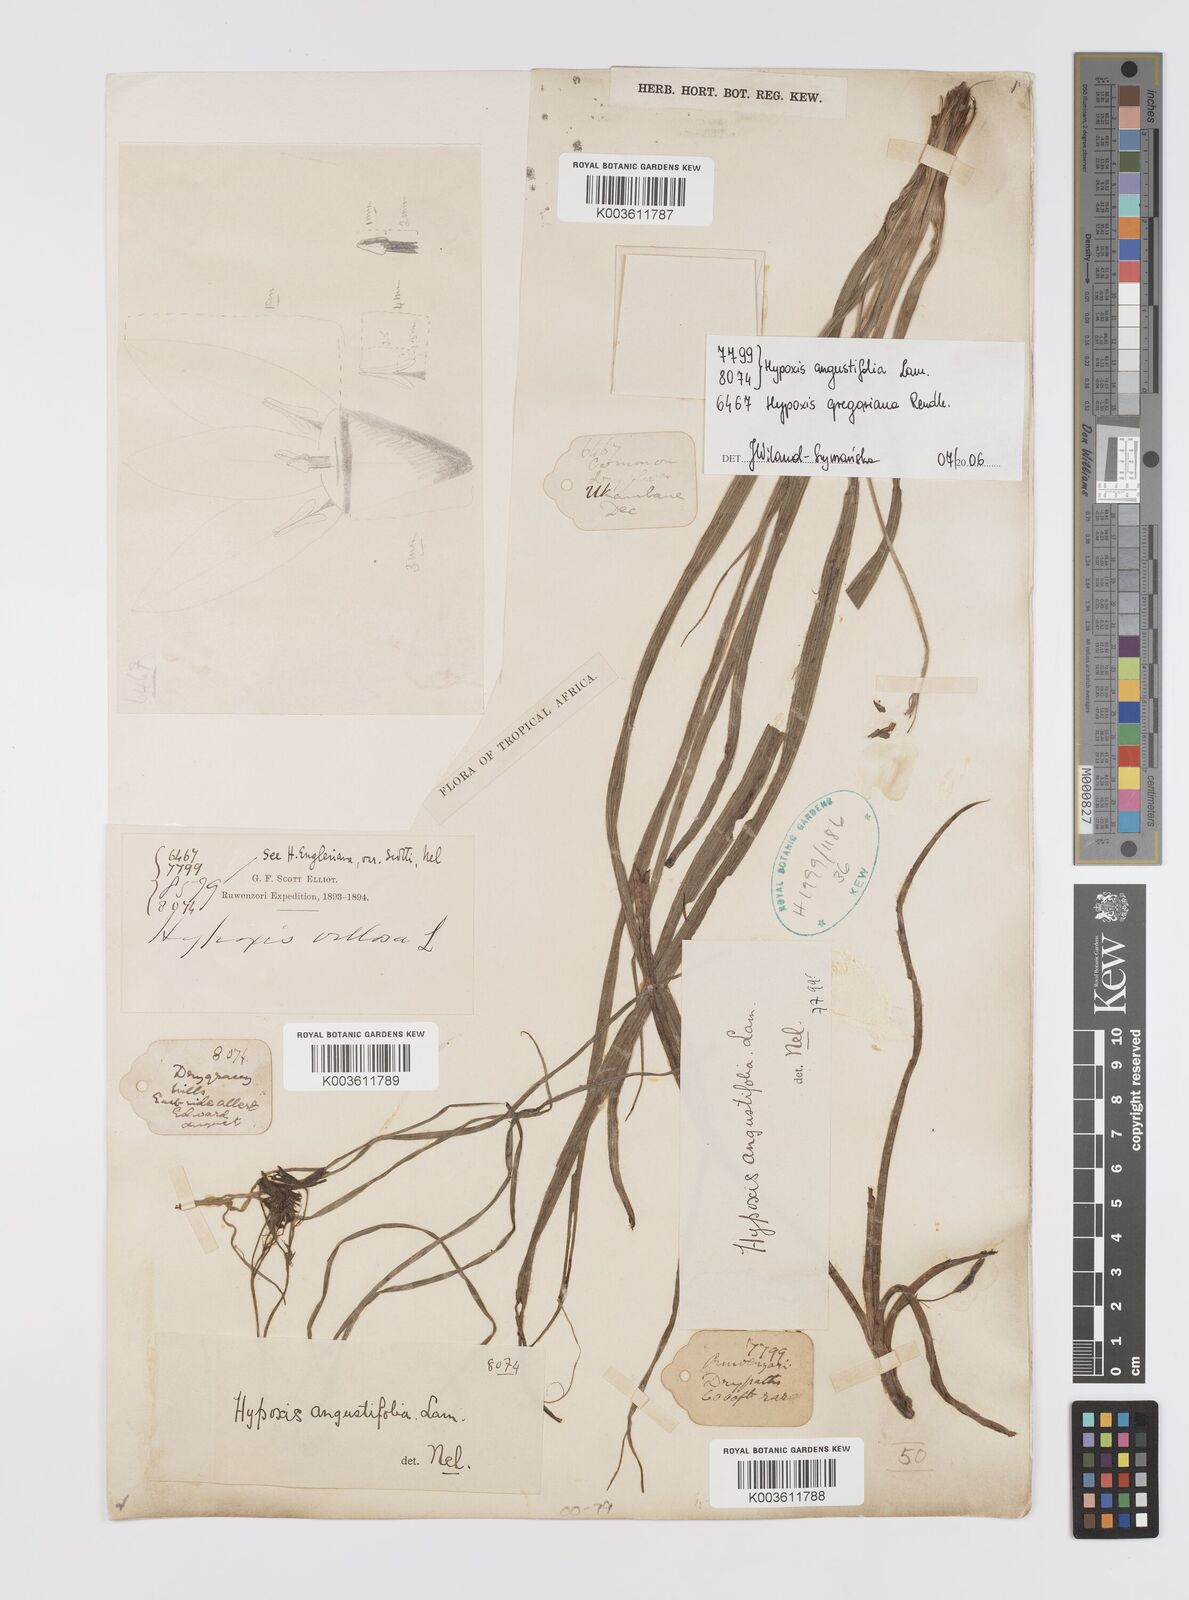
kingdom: Plantae
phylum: Tracheophyta
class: Liliopsida
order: Asparagales
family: Hypoxidaceae
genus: Hypoxis
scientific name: Hypoxis angustifolia
